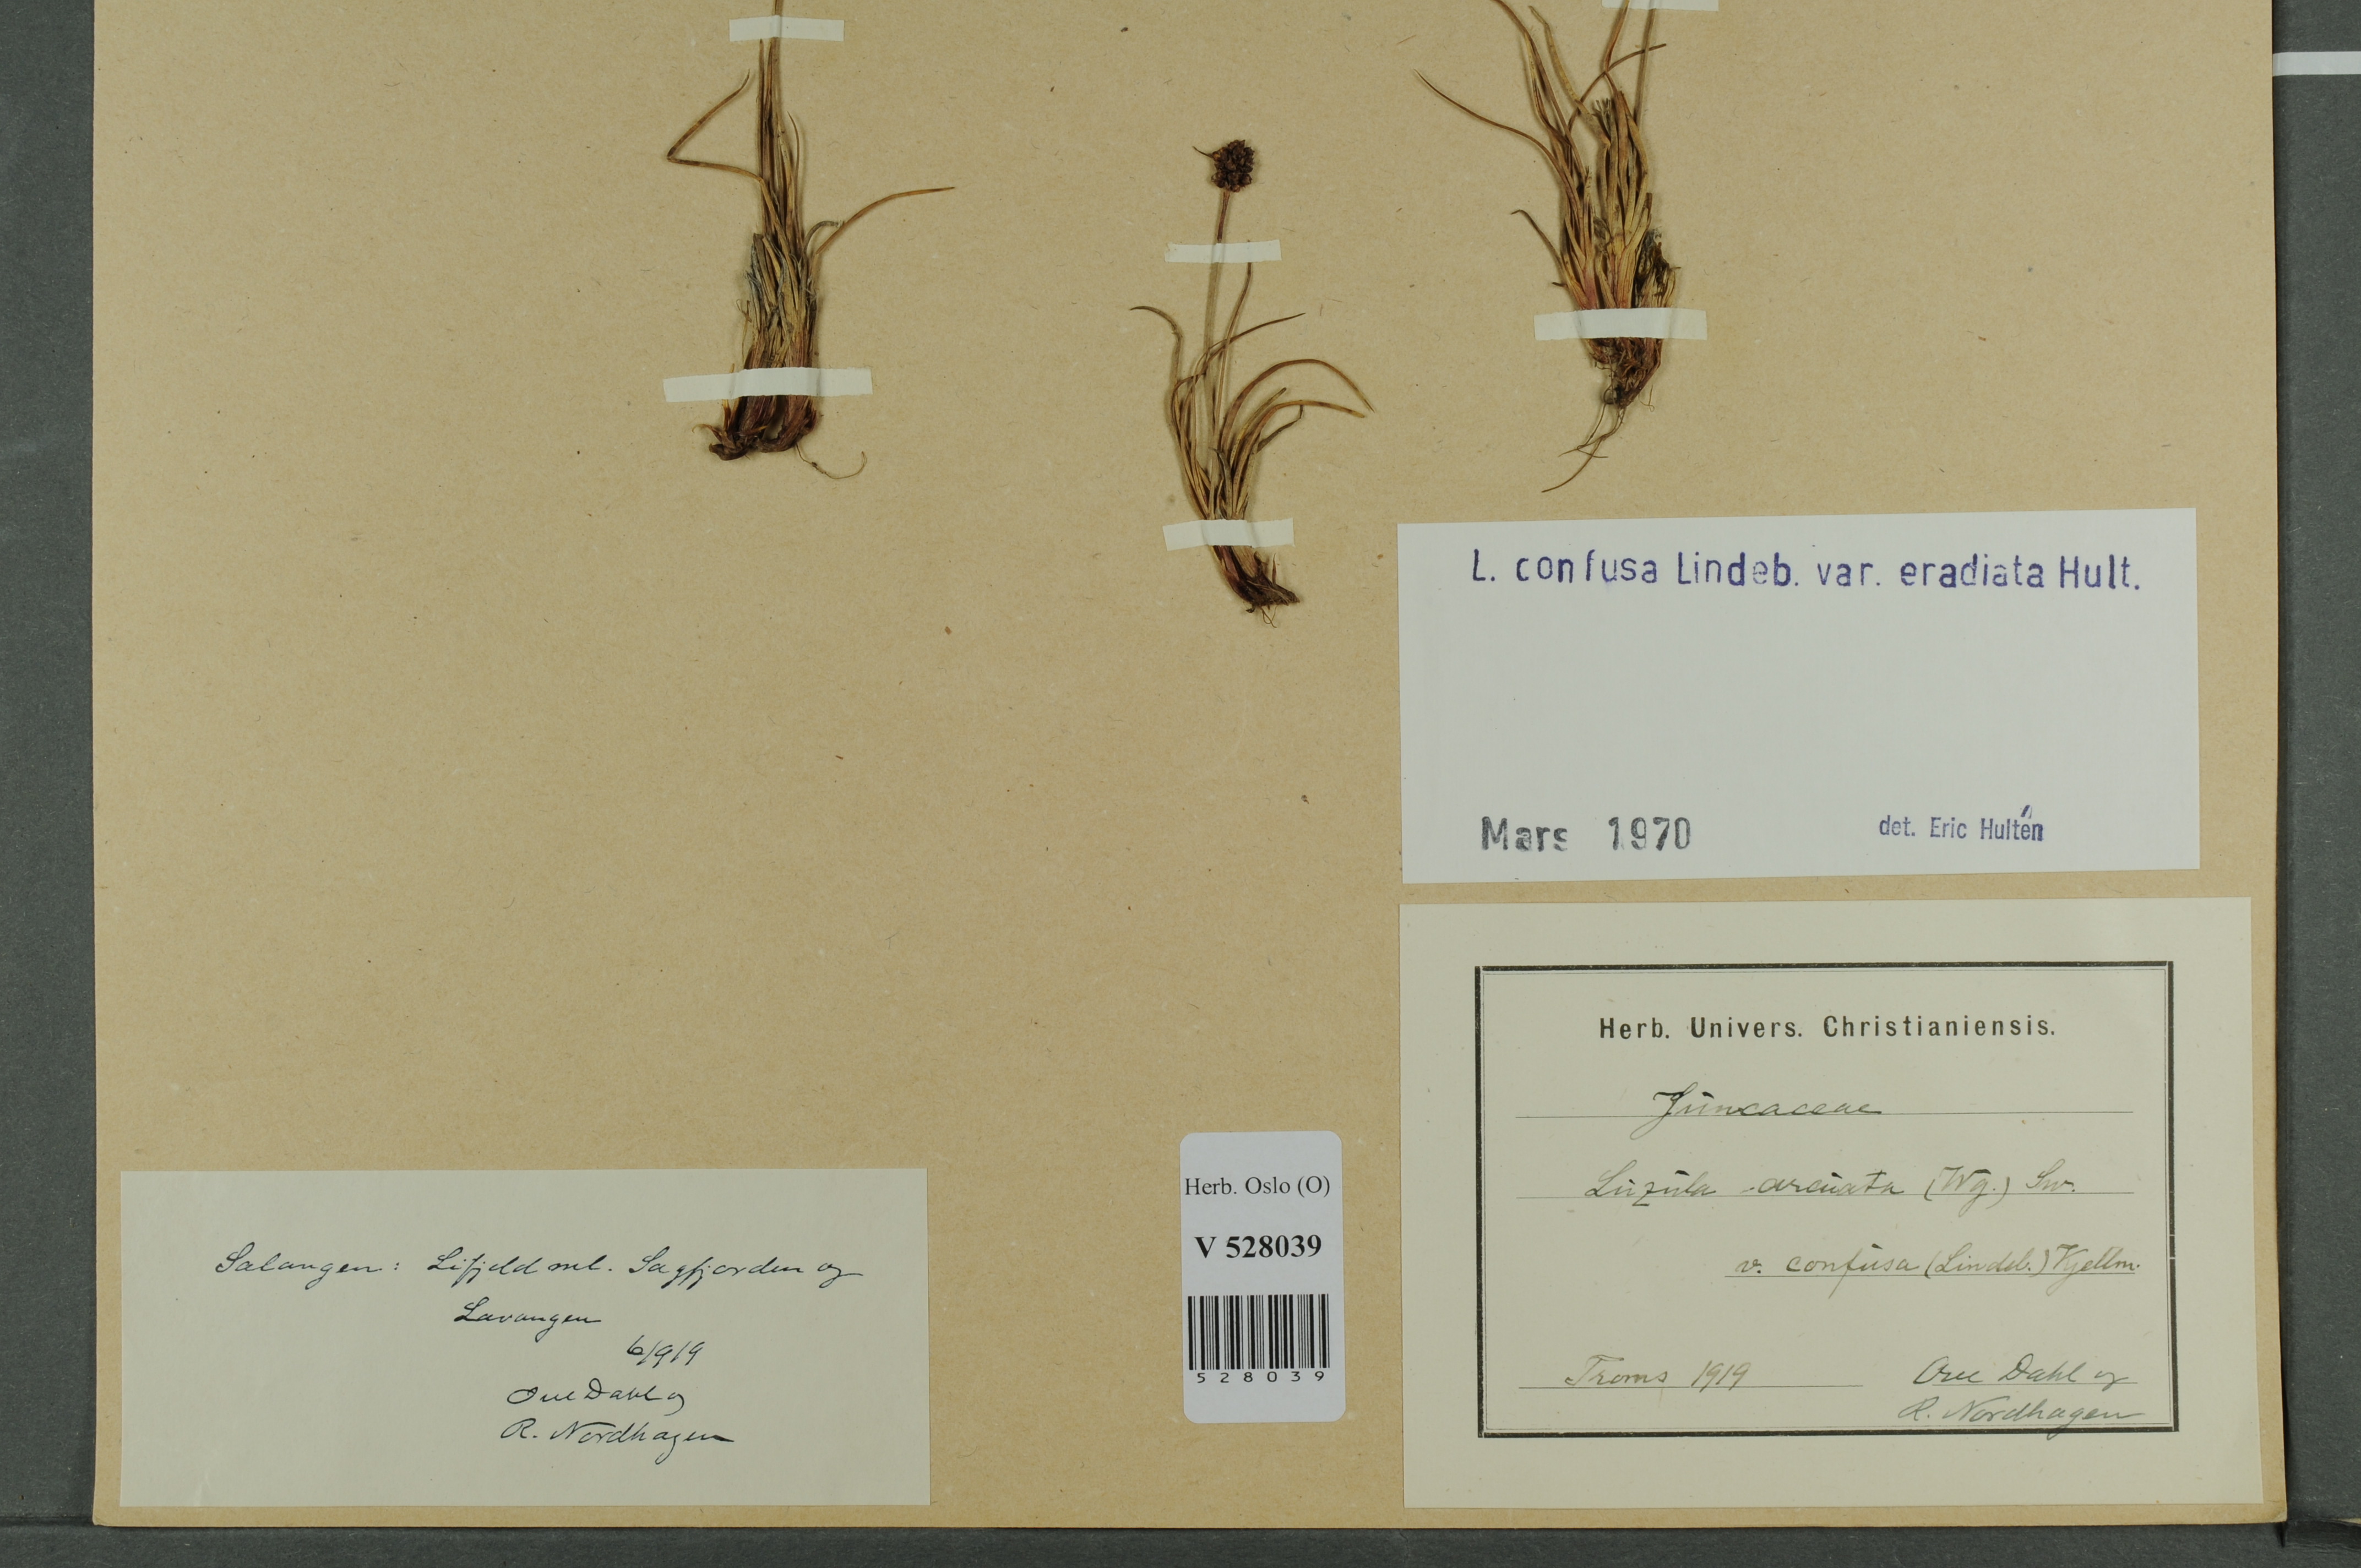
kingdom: Plantae
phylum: Tracheophyta
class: Liliopsida
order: Poales
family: Juncaceae
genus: Luzula
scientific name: Luzula confusa
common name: Northern wood rush
